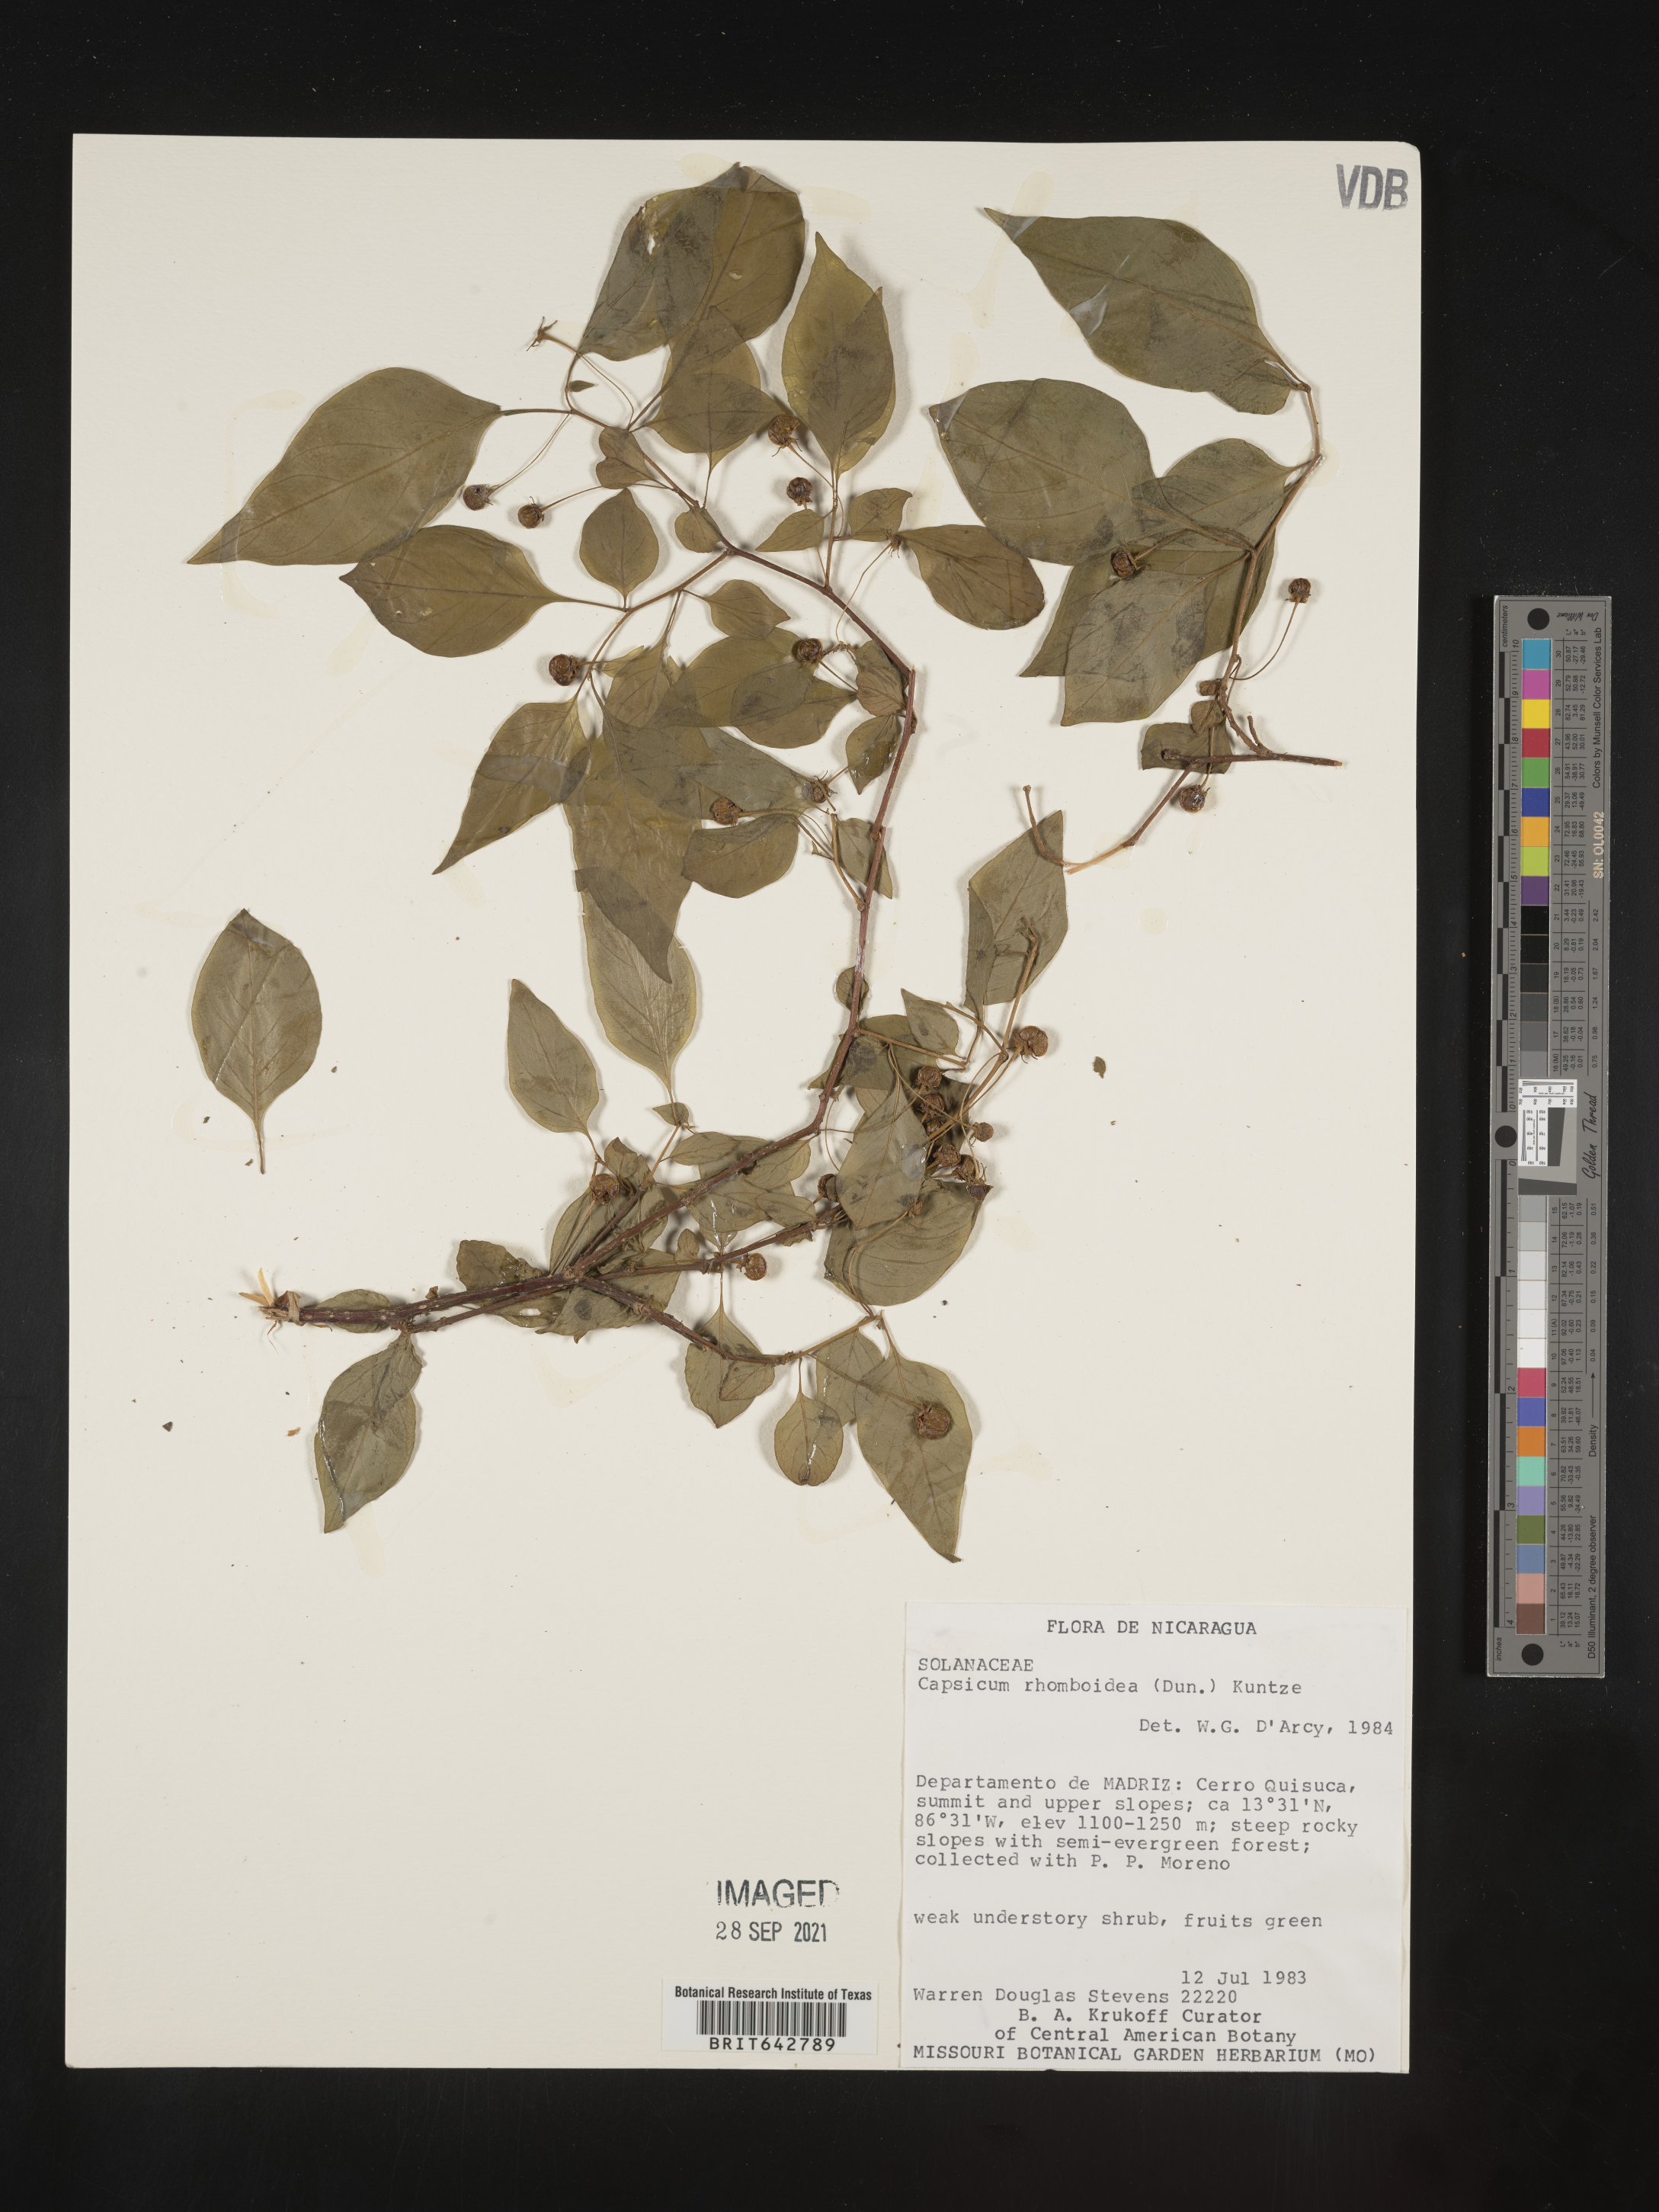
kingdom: Plantae
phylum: Tracheophyta
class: Magnoliopsida
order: Solanales
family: Solanaceae
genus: Capsicum
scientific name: Capsicum
